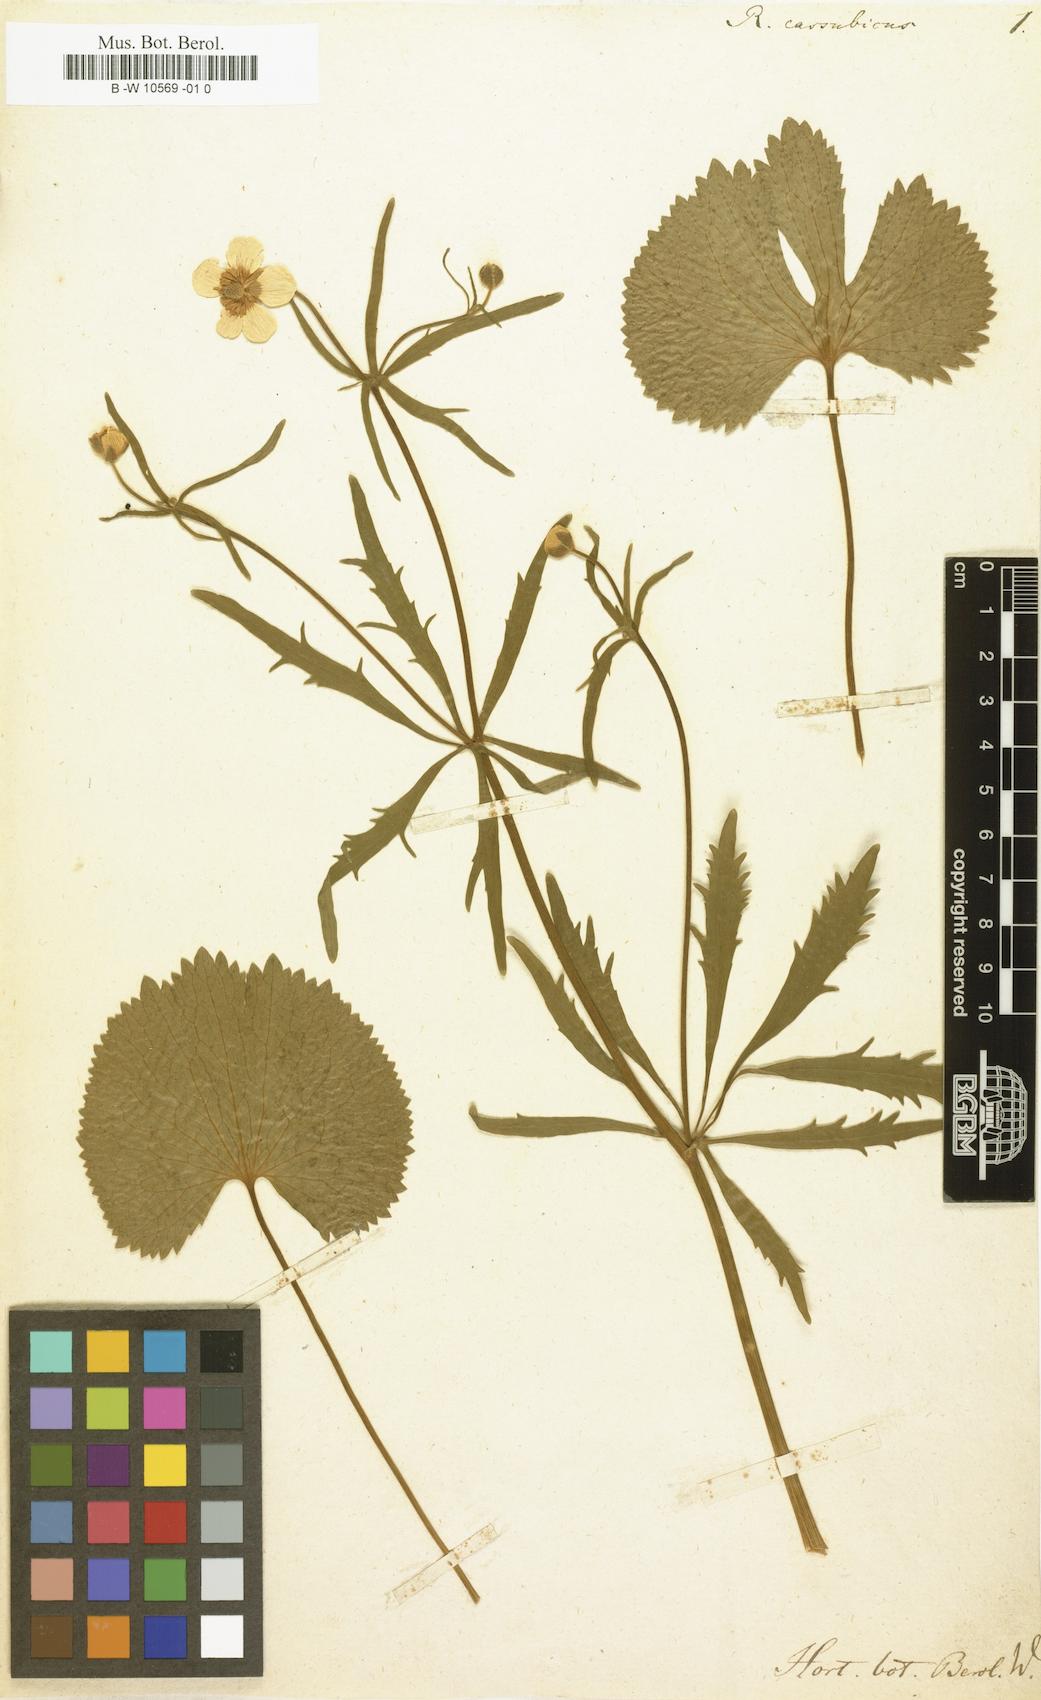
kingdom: Plantae
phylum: Tracheophyta
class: Magnoliopsida
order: Ranunculales
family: Ranunculaceae
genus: Ranunculus
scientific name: Ranunculus cassubicus
